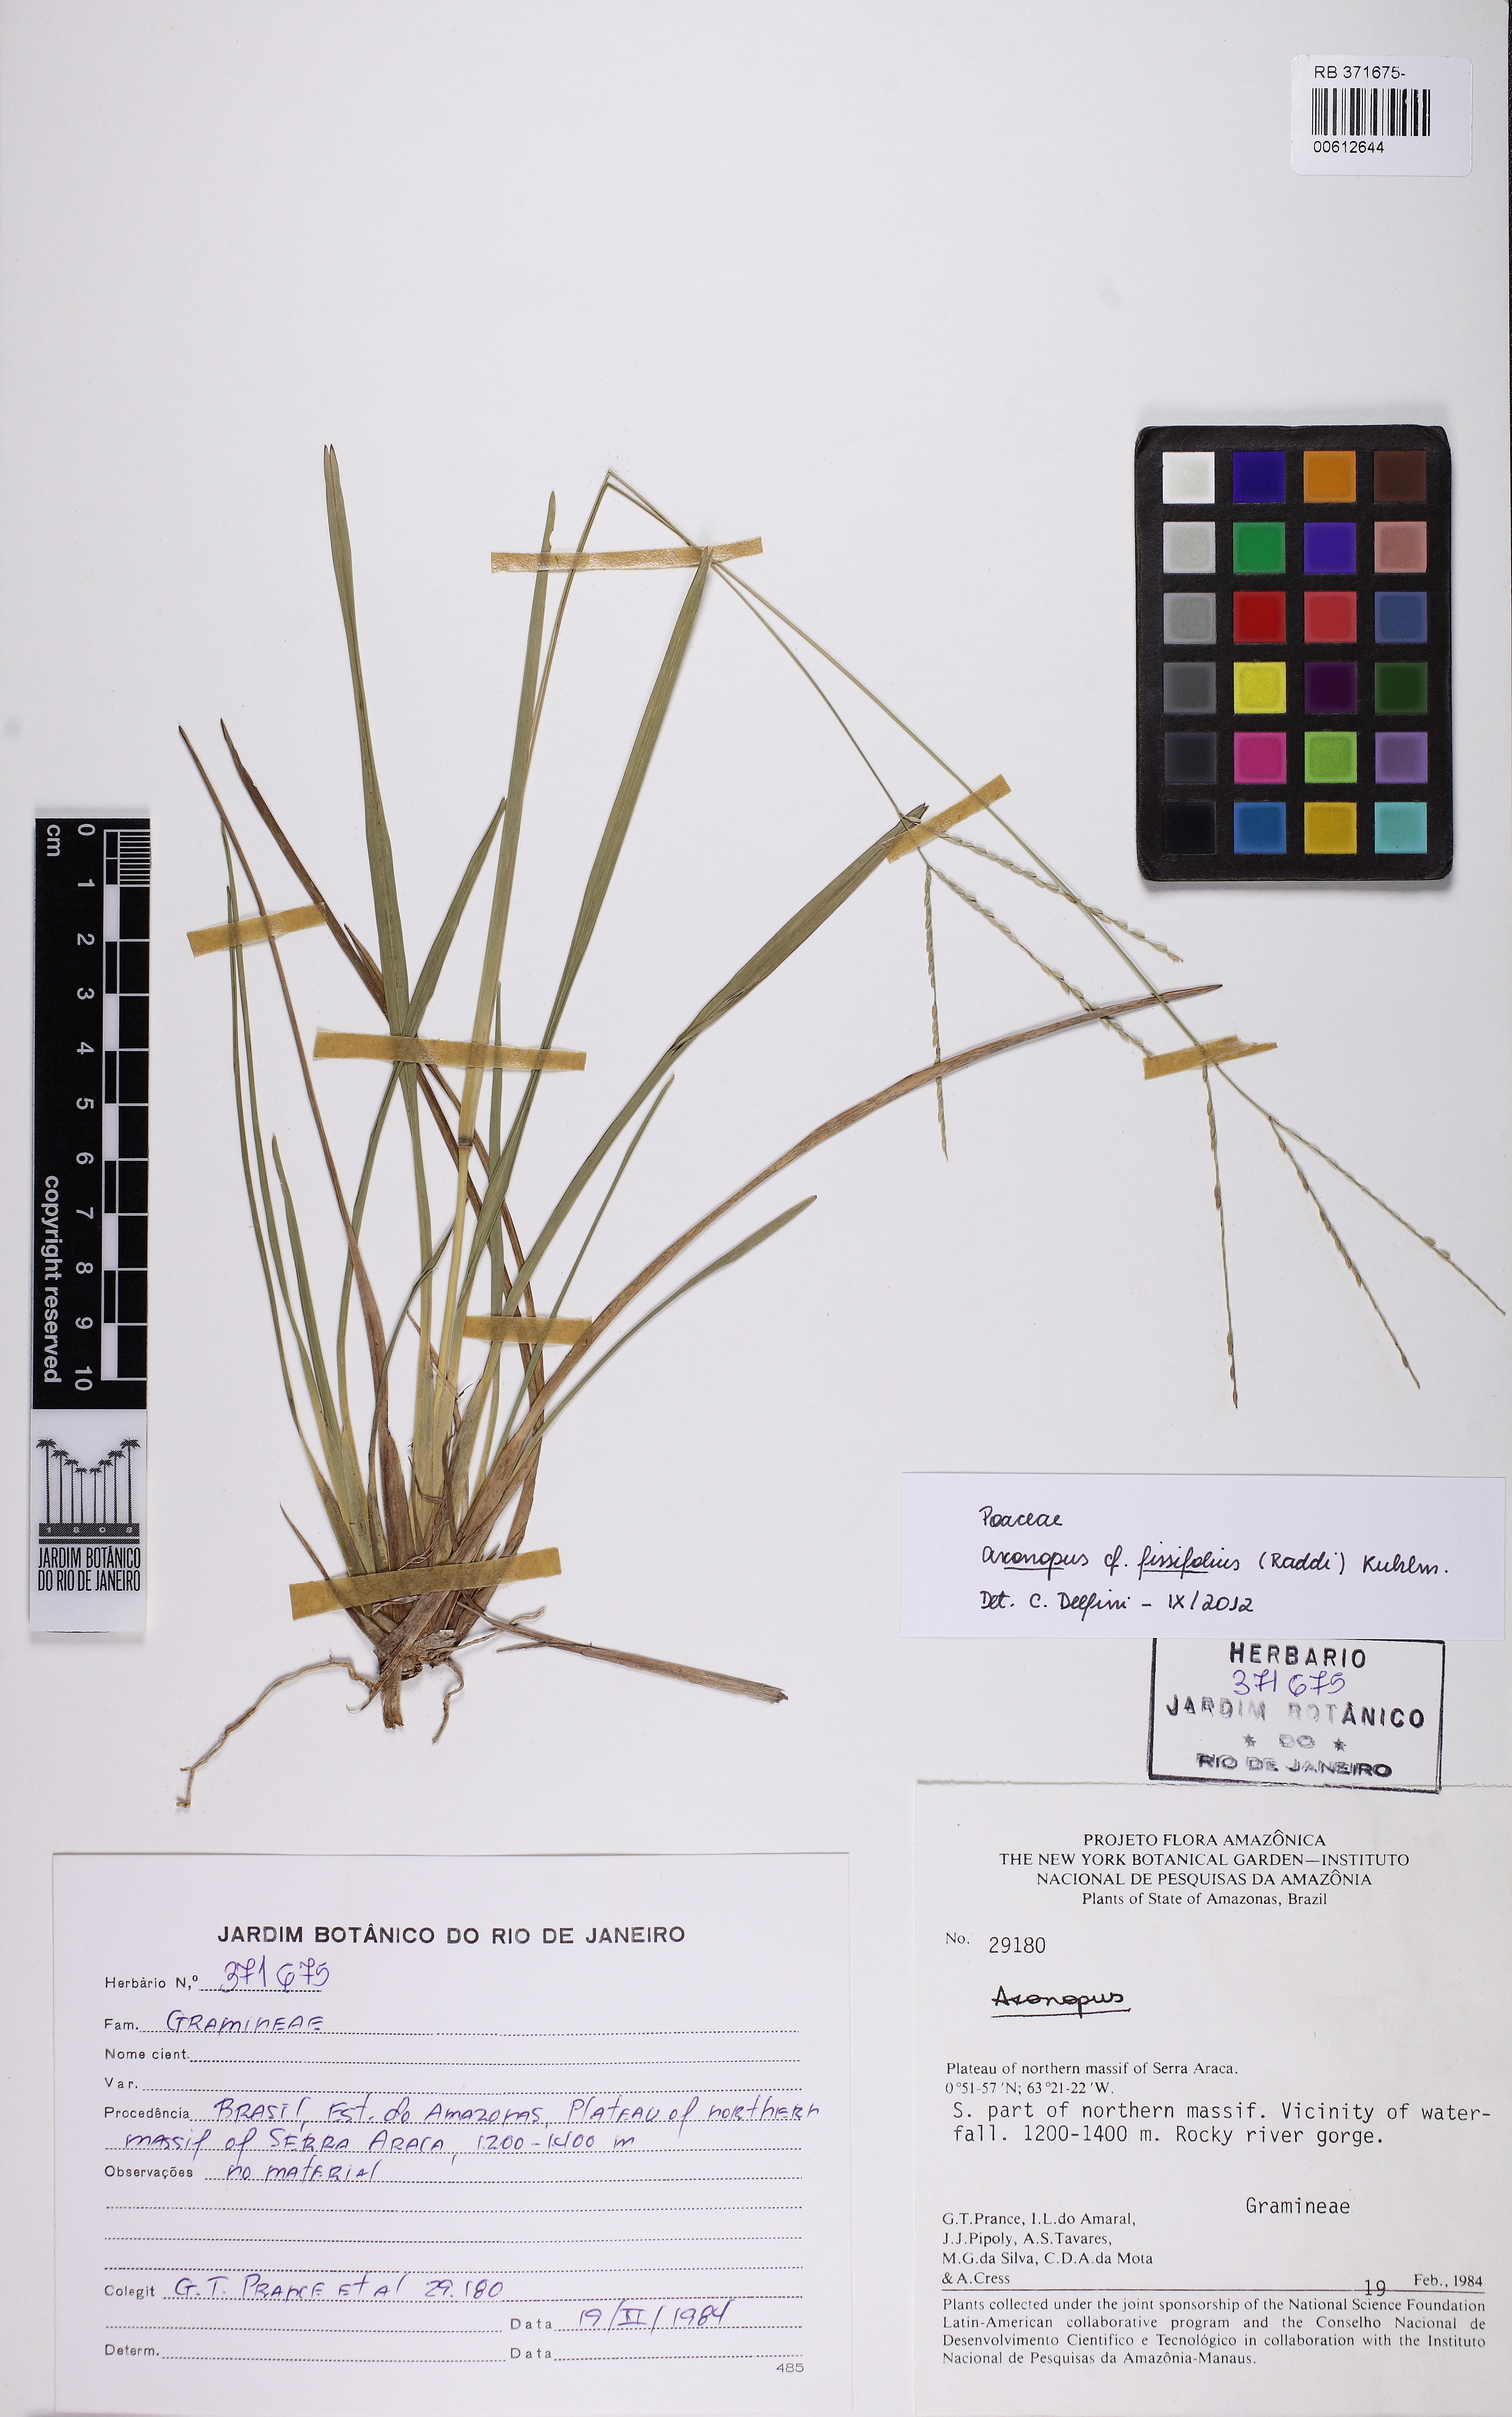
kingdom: Plantae
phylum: Tracheophyta
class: Liliopsida
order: Poales
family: Poaceae
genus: Axonopus
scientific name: Axonopus fissifolius
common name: Common carpetgrass
